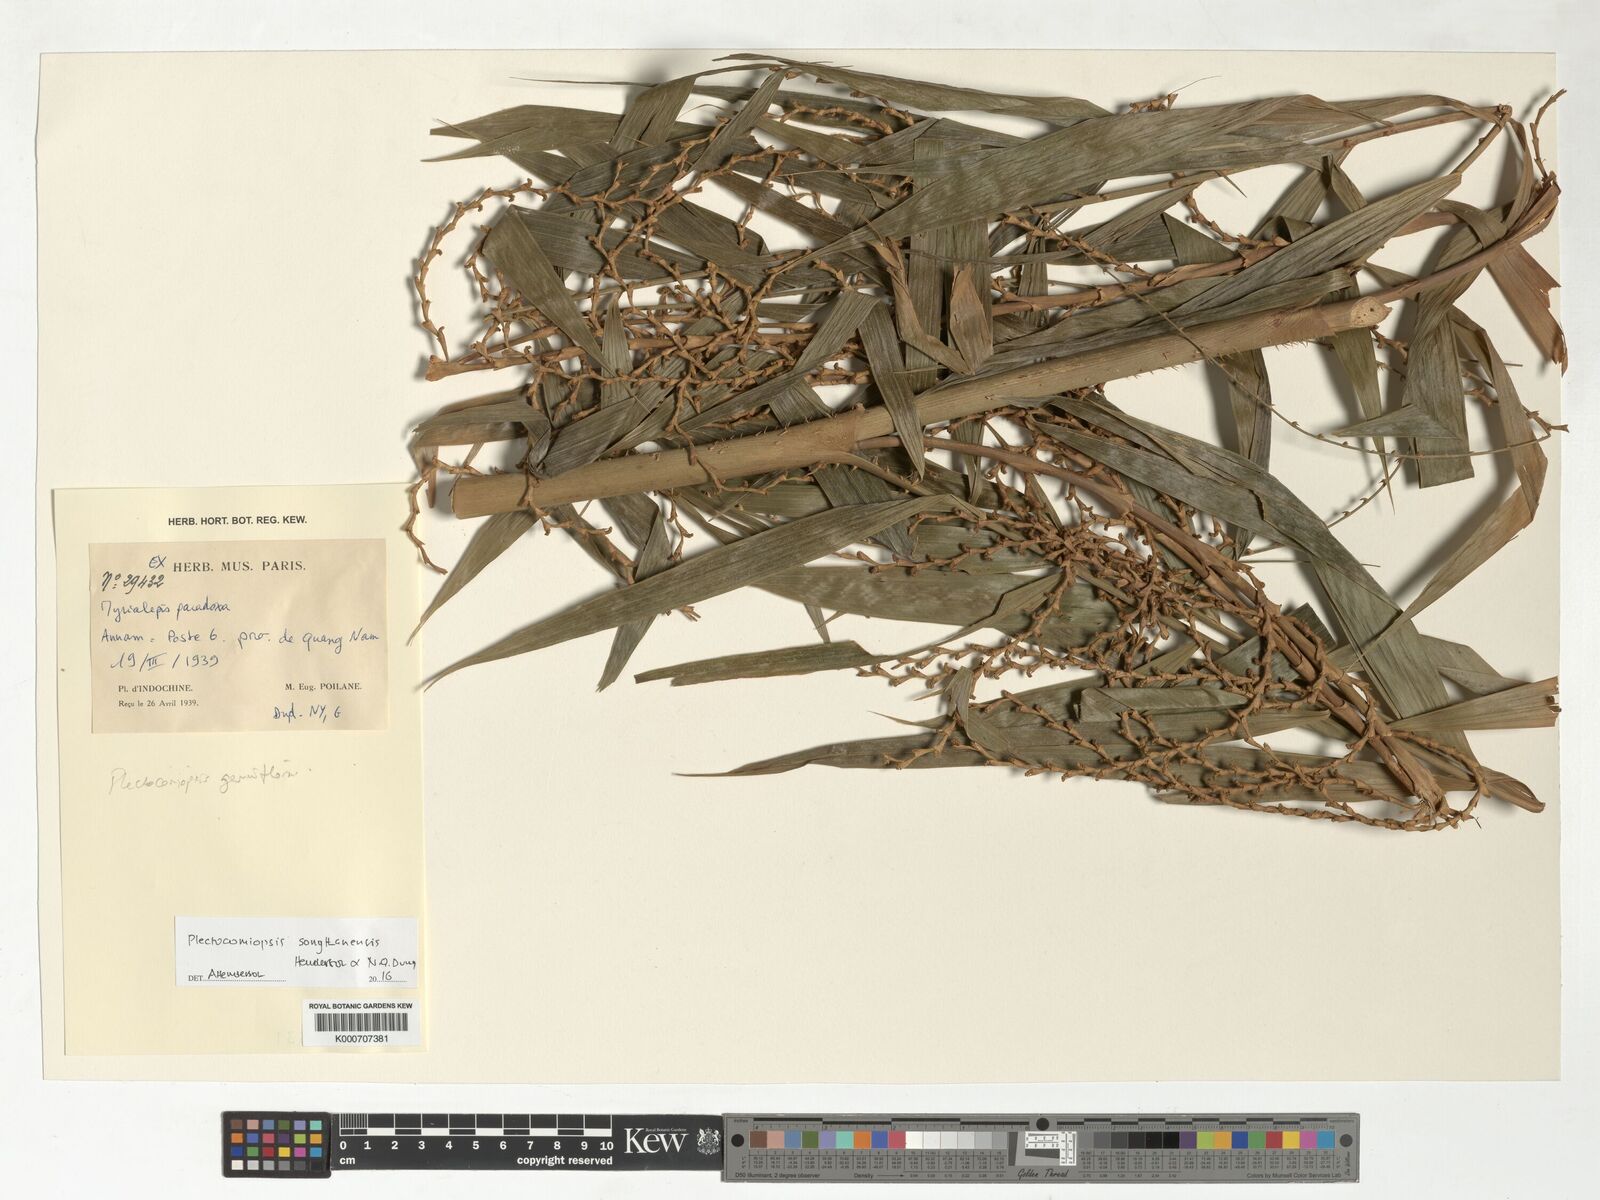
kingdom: Plantae
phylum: Tracheophyta
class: Liliopsida
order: Arecales
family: Arecaceae
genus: Plectocomiopsis
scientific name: Plectocomiopsis songthanhensis
